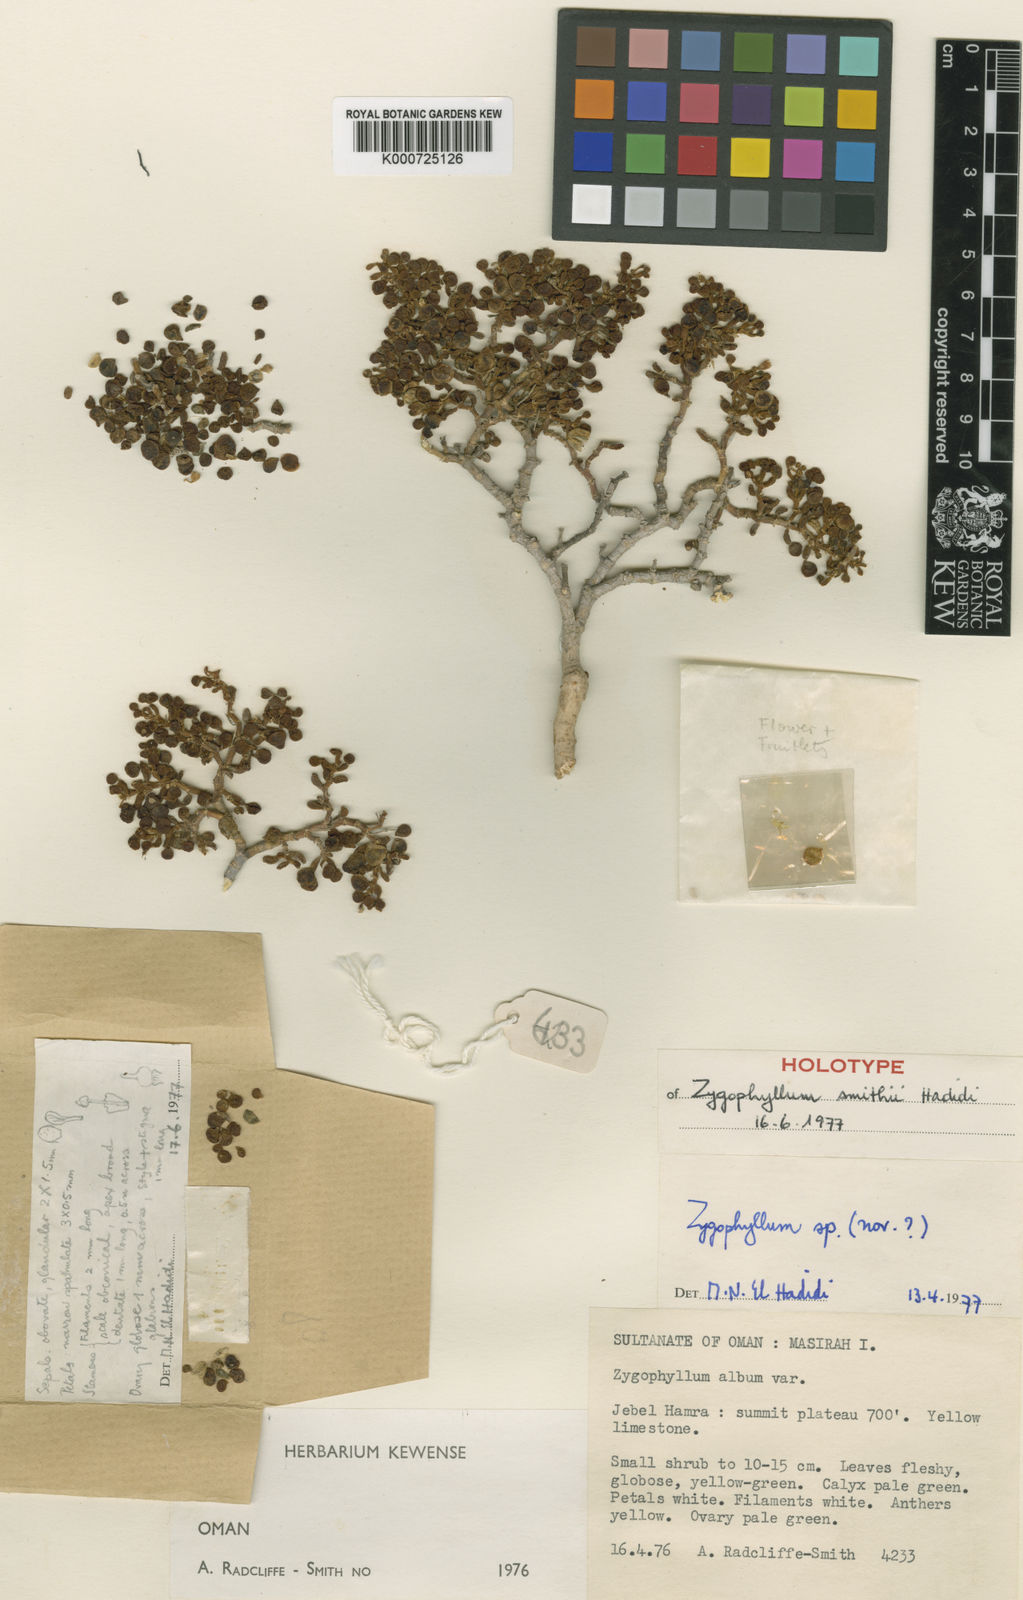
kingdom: Plantae
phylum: Tracheophyta
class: Magnoliopsida
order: Zygophyllales
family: Zygophyllaceae
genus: Tetraena
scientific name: Tetraena smithii
